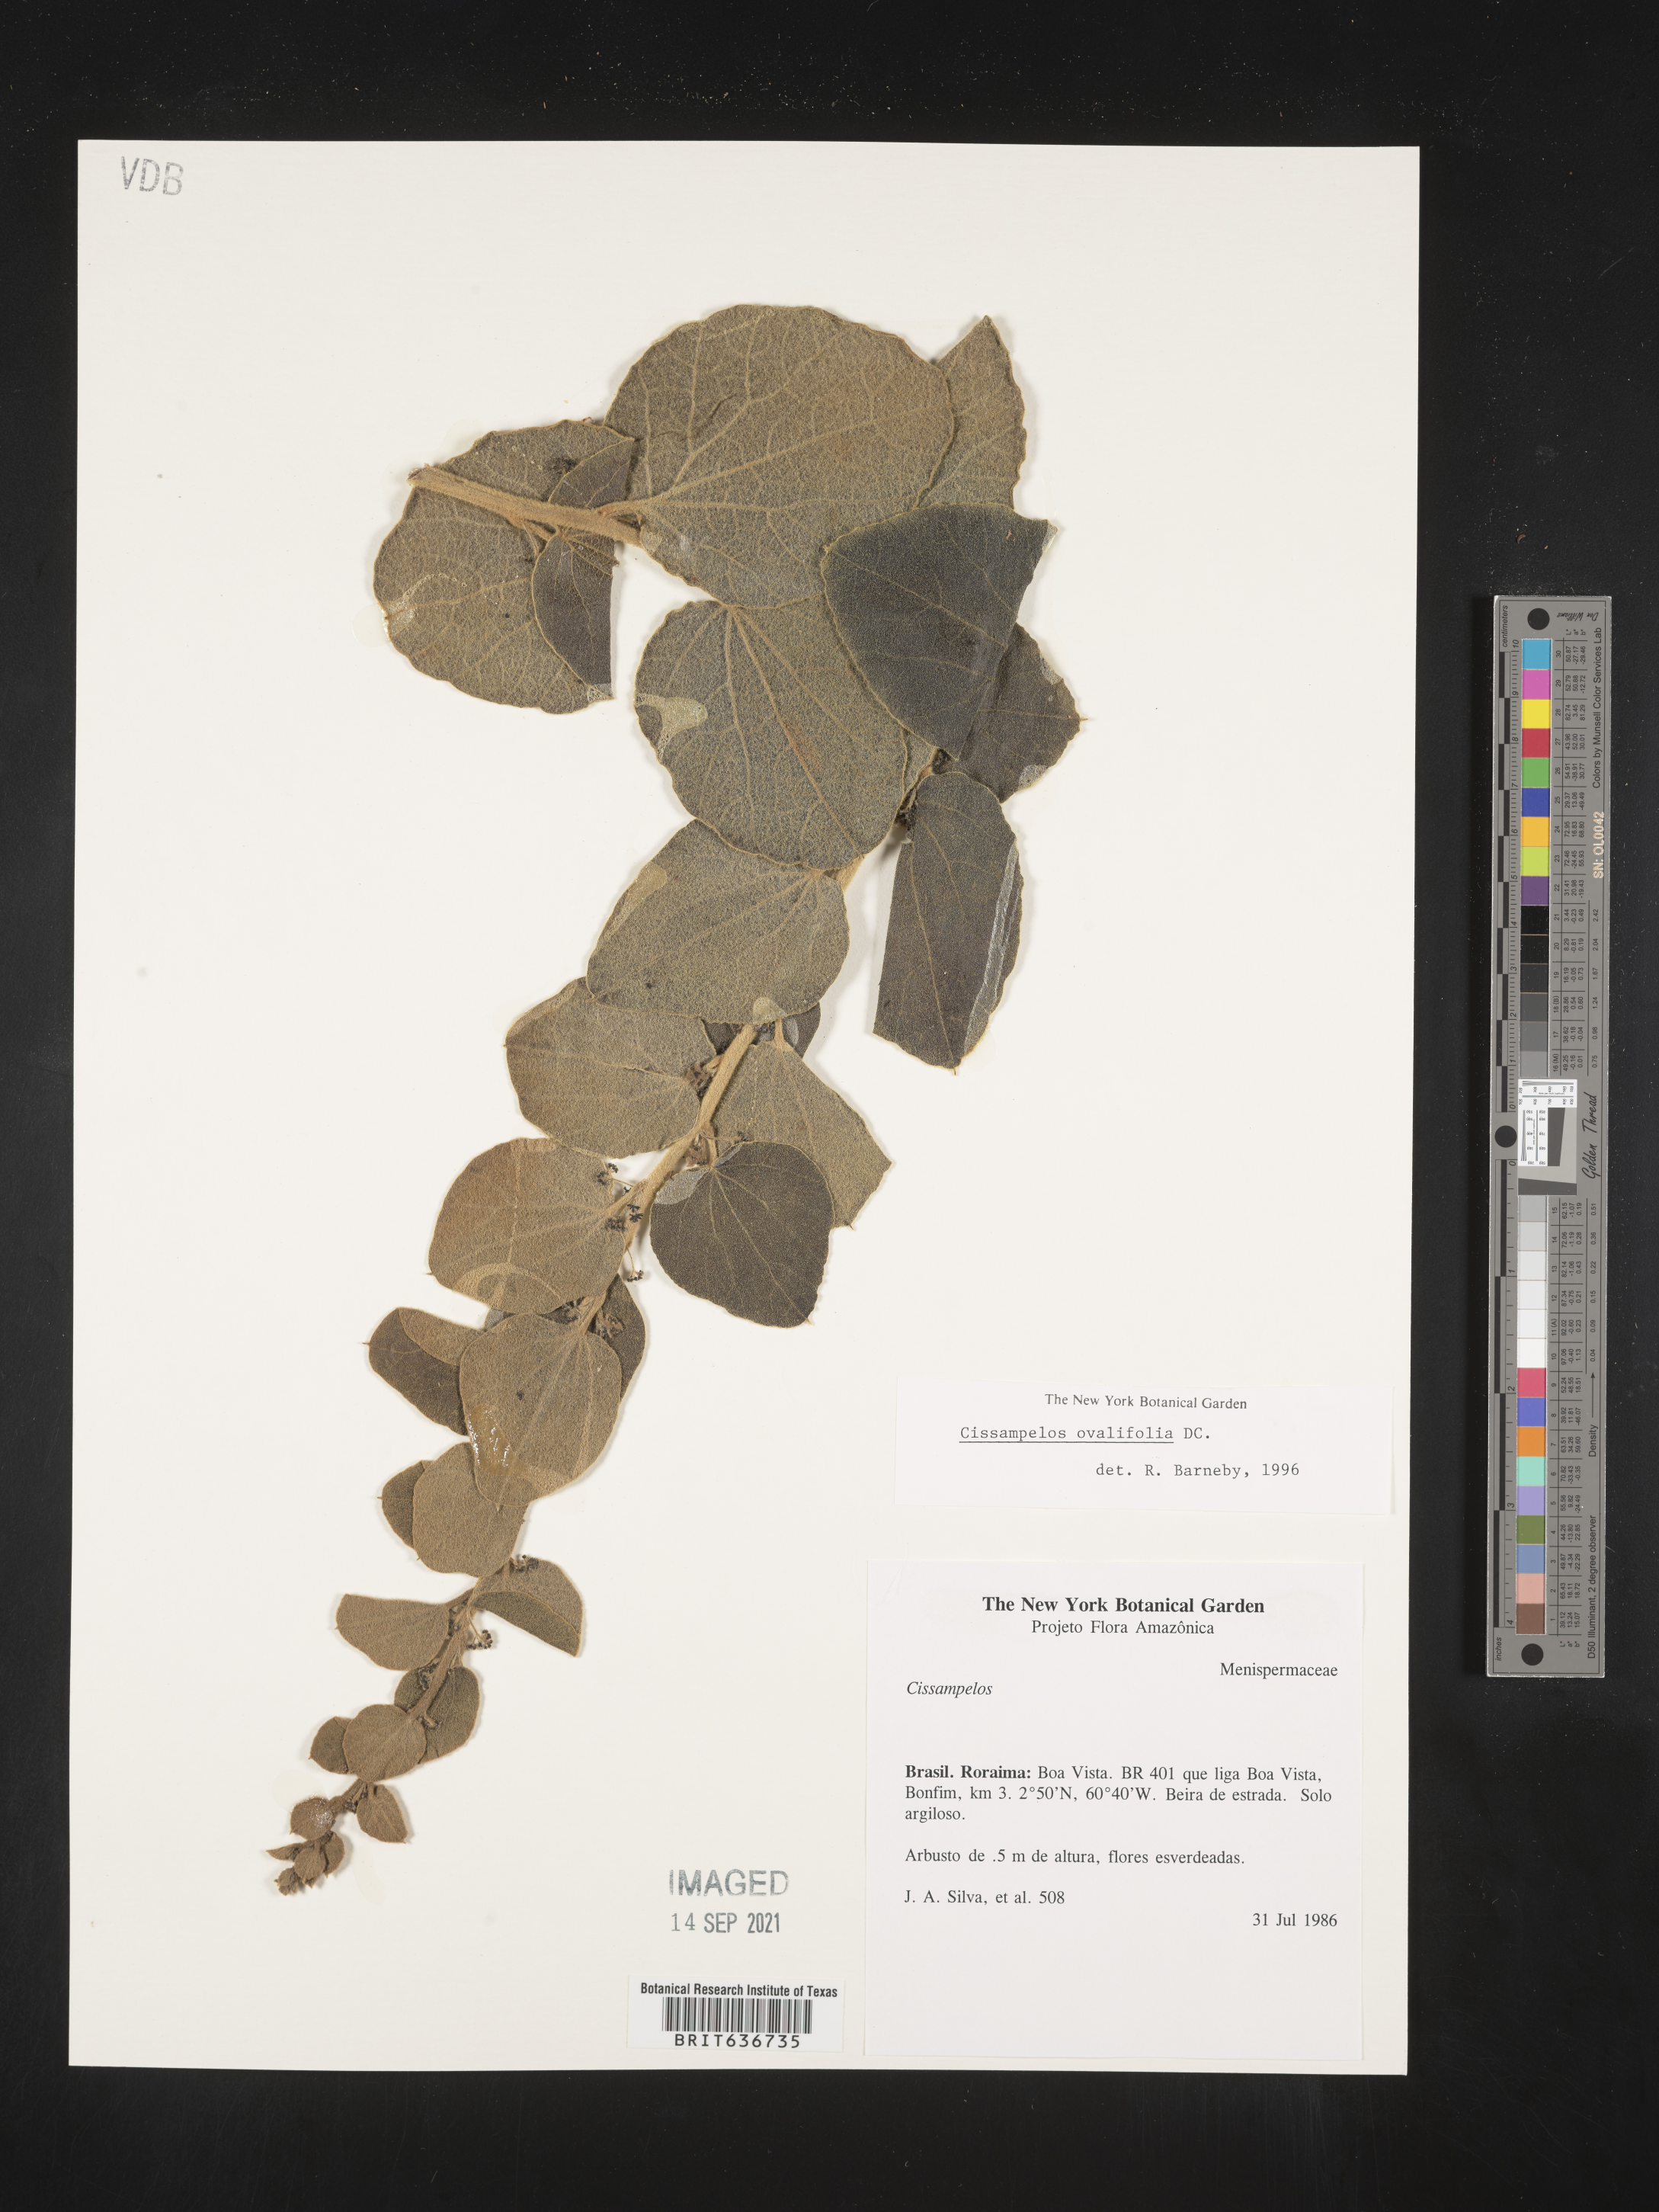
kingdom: Plantae
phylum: Tracheophyta
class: Magnoliopsida
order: Ranunculales
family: Menispermaceae
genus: Cissampelos
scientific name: Cissampelos
